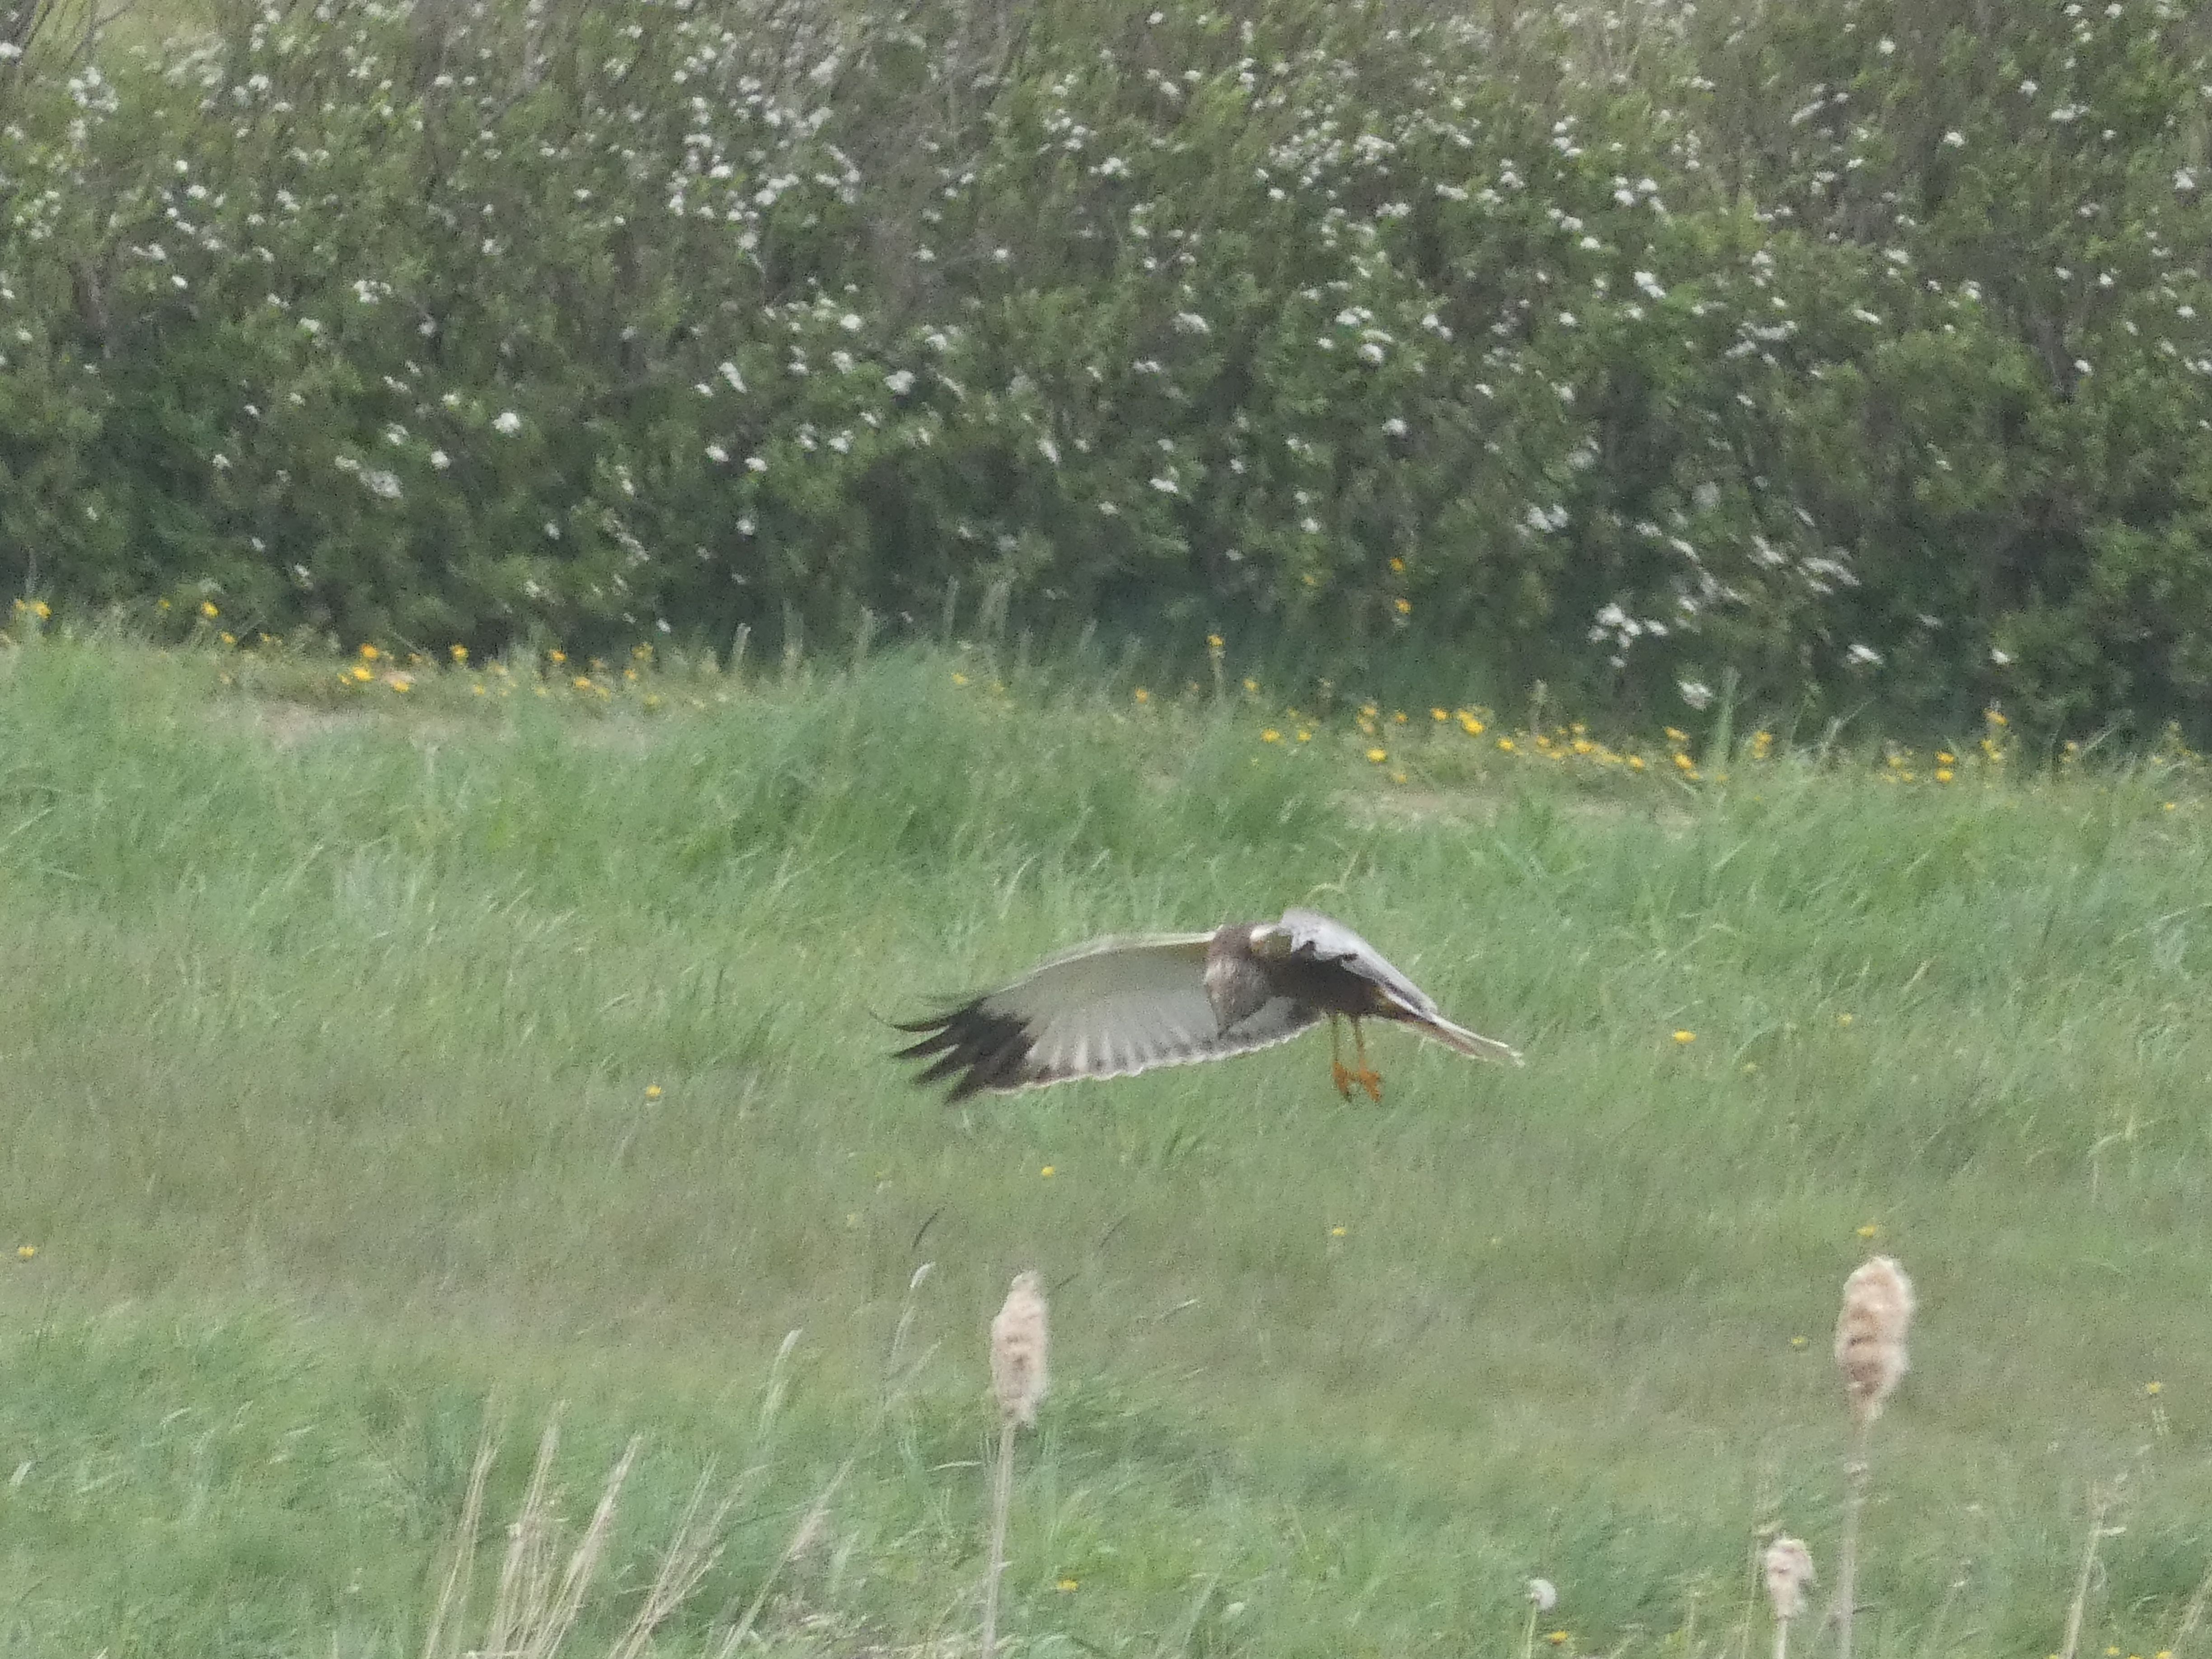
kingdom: Animalia
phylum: Chordata
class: Aves
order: Accipitriformes
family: Accipitridae
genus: Circus
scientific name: Circus aeruginosus
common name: Rørhøg
